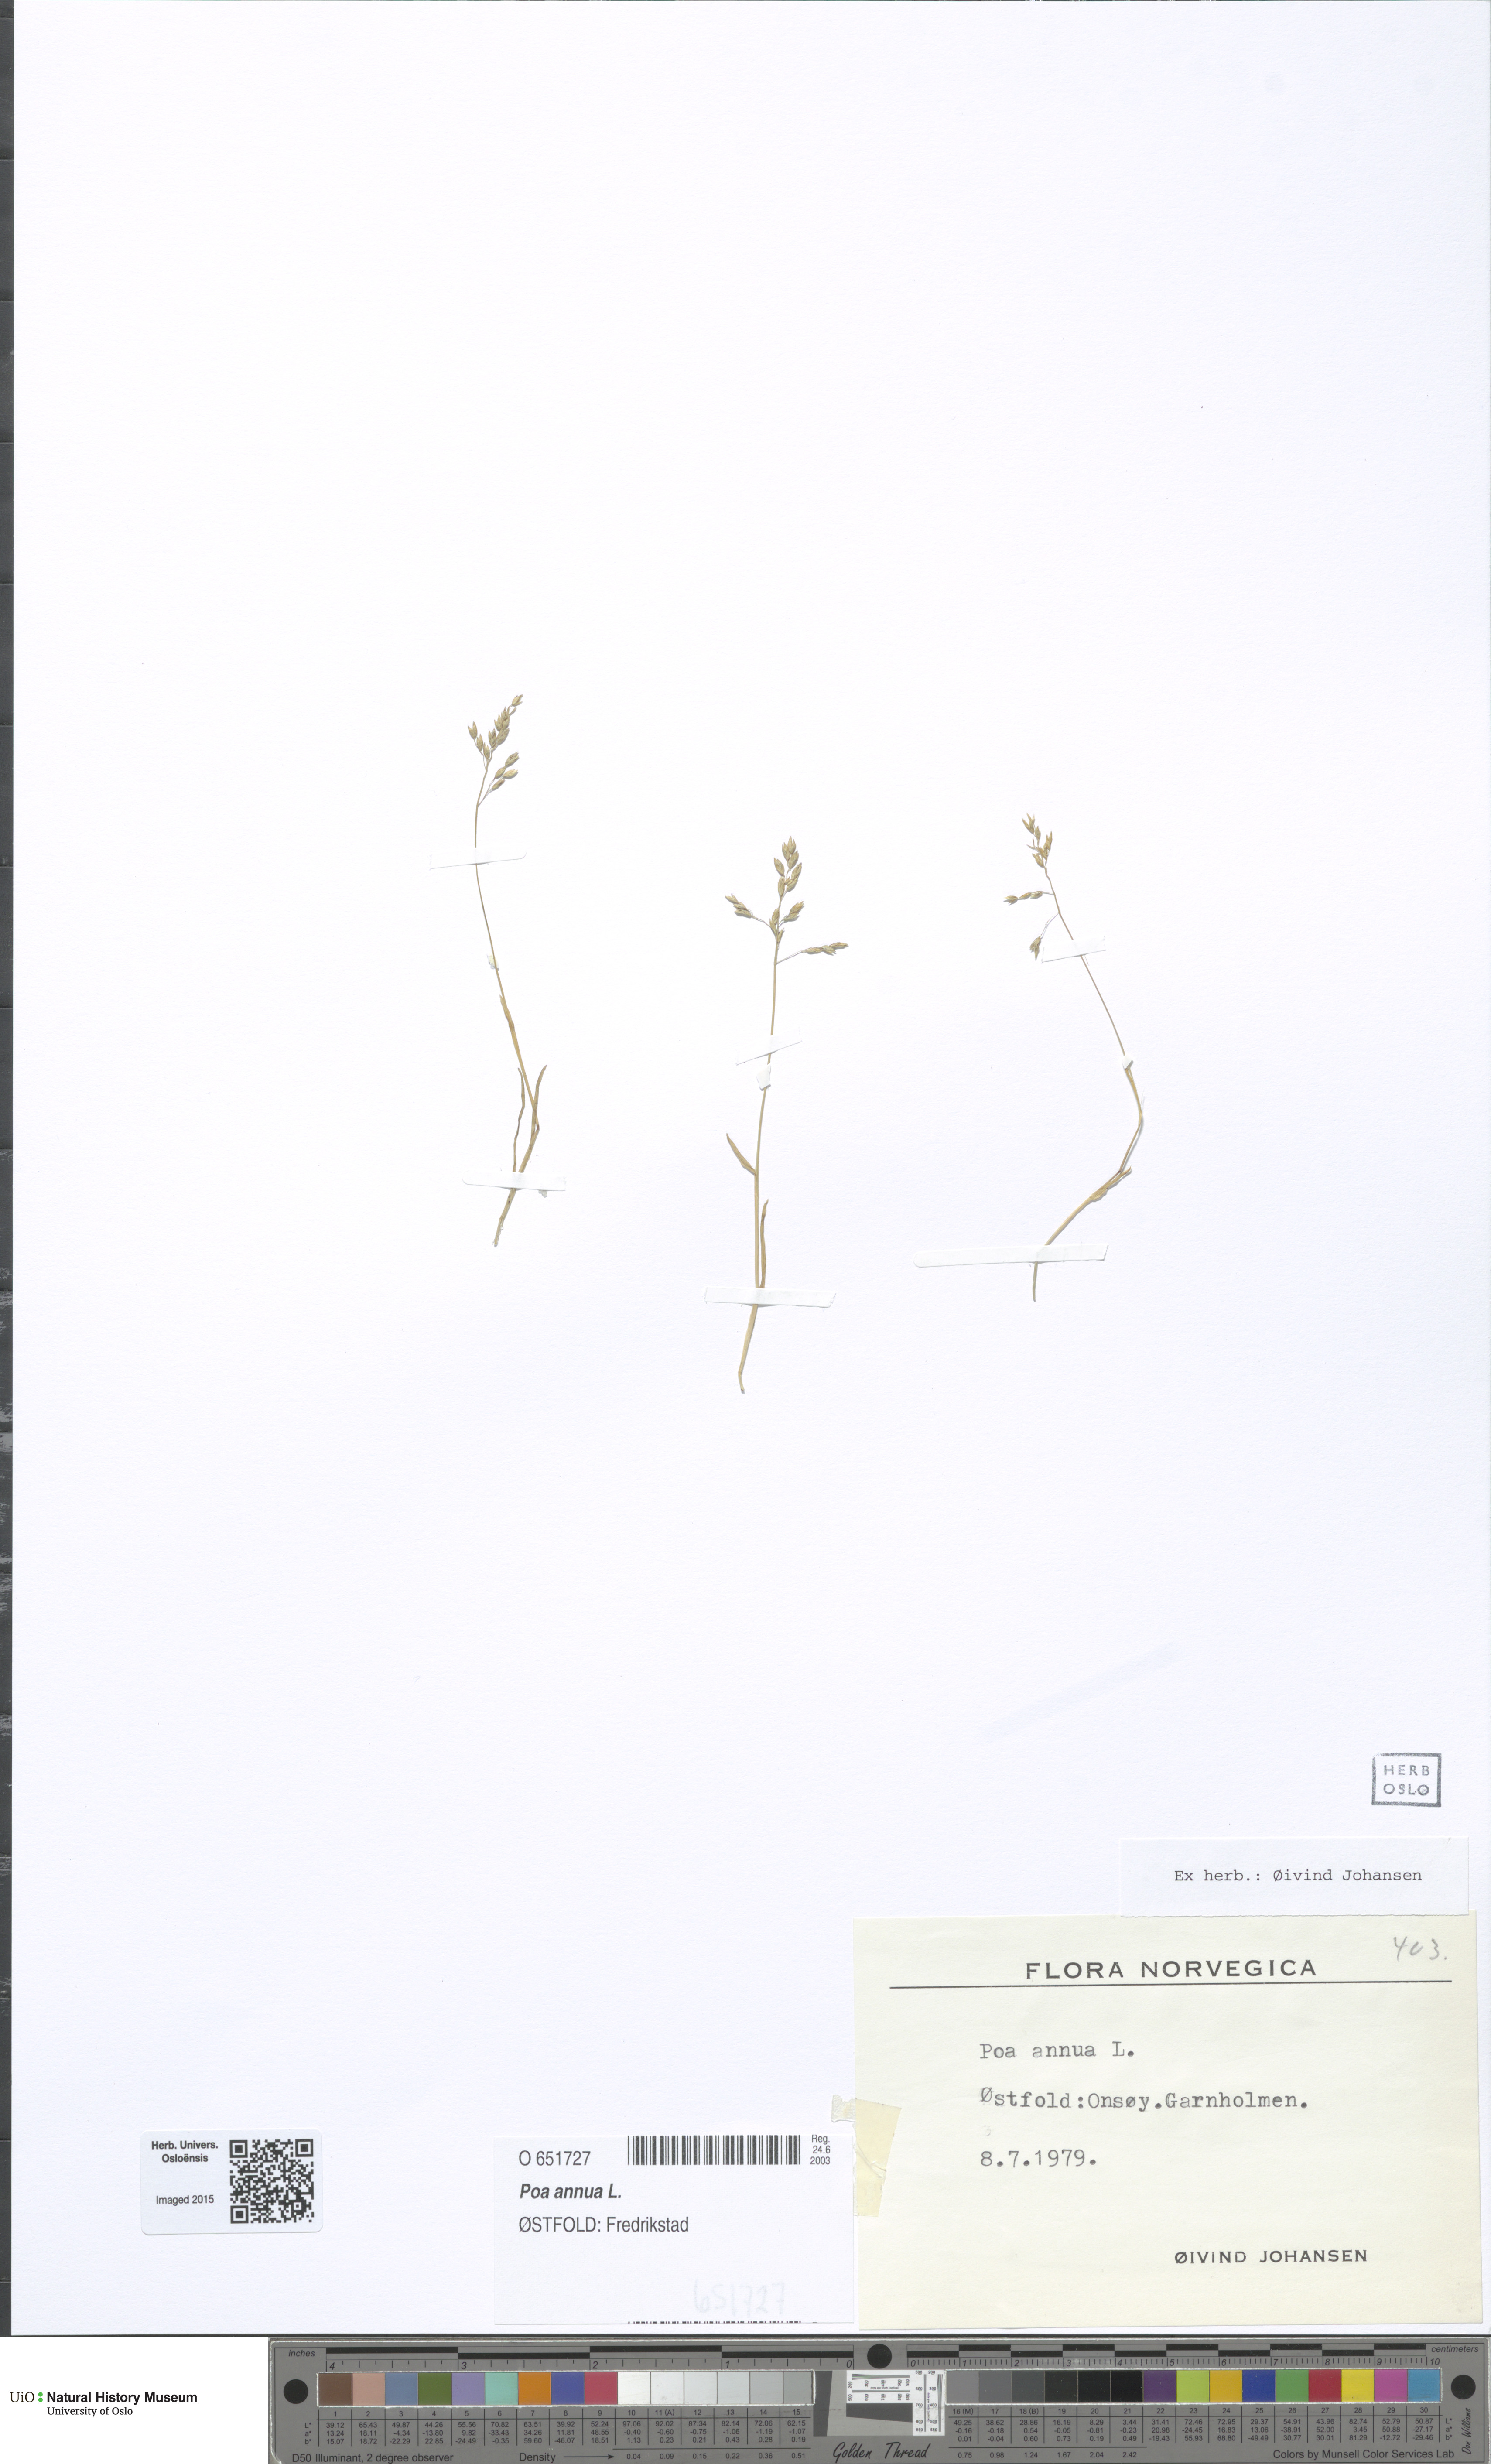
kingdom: Plantae
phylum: Tracheophyta
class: Liliopsida
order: Poales
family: Poaceae
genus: Poa
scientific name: Poa annua
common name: Annual bluegrass
